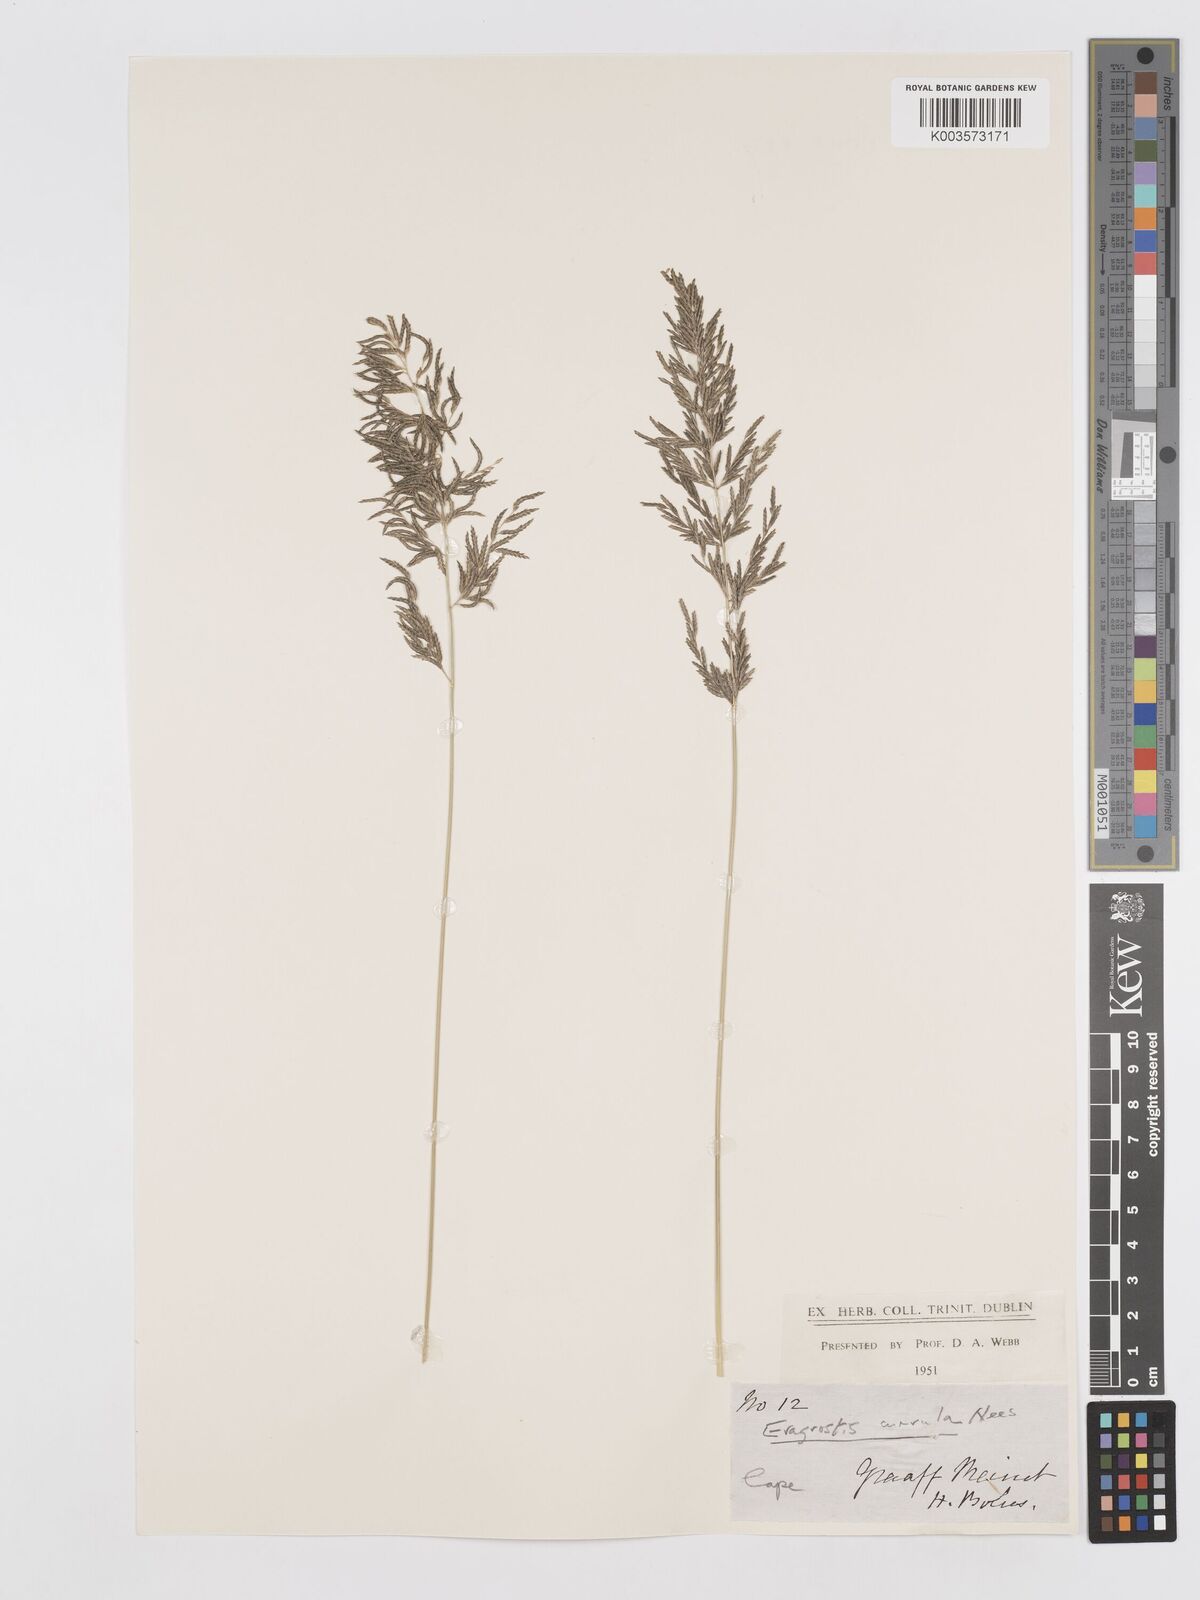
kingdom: Plantae
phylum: Tracheophyta
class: Liliopsida
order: Poales
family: Poaceae
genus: Eragrostis
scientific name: Eragrostis curvula
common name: African love-grass
